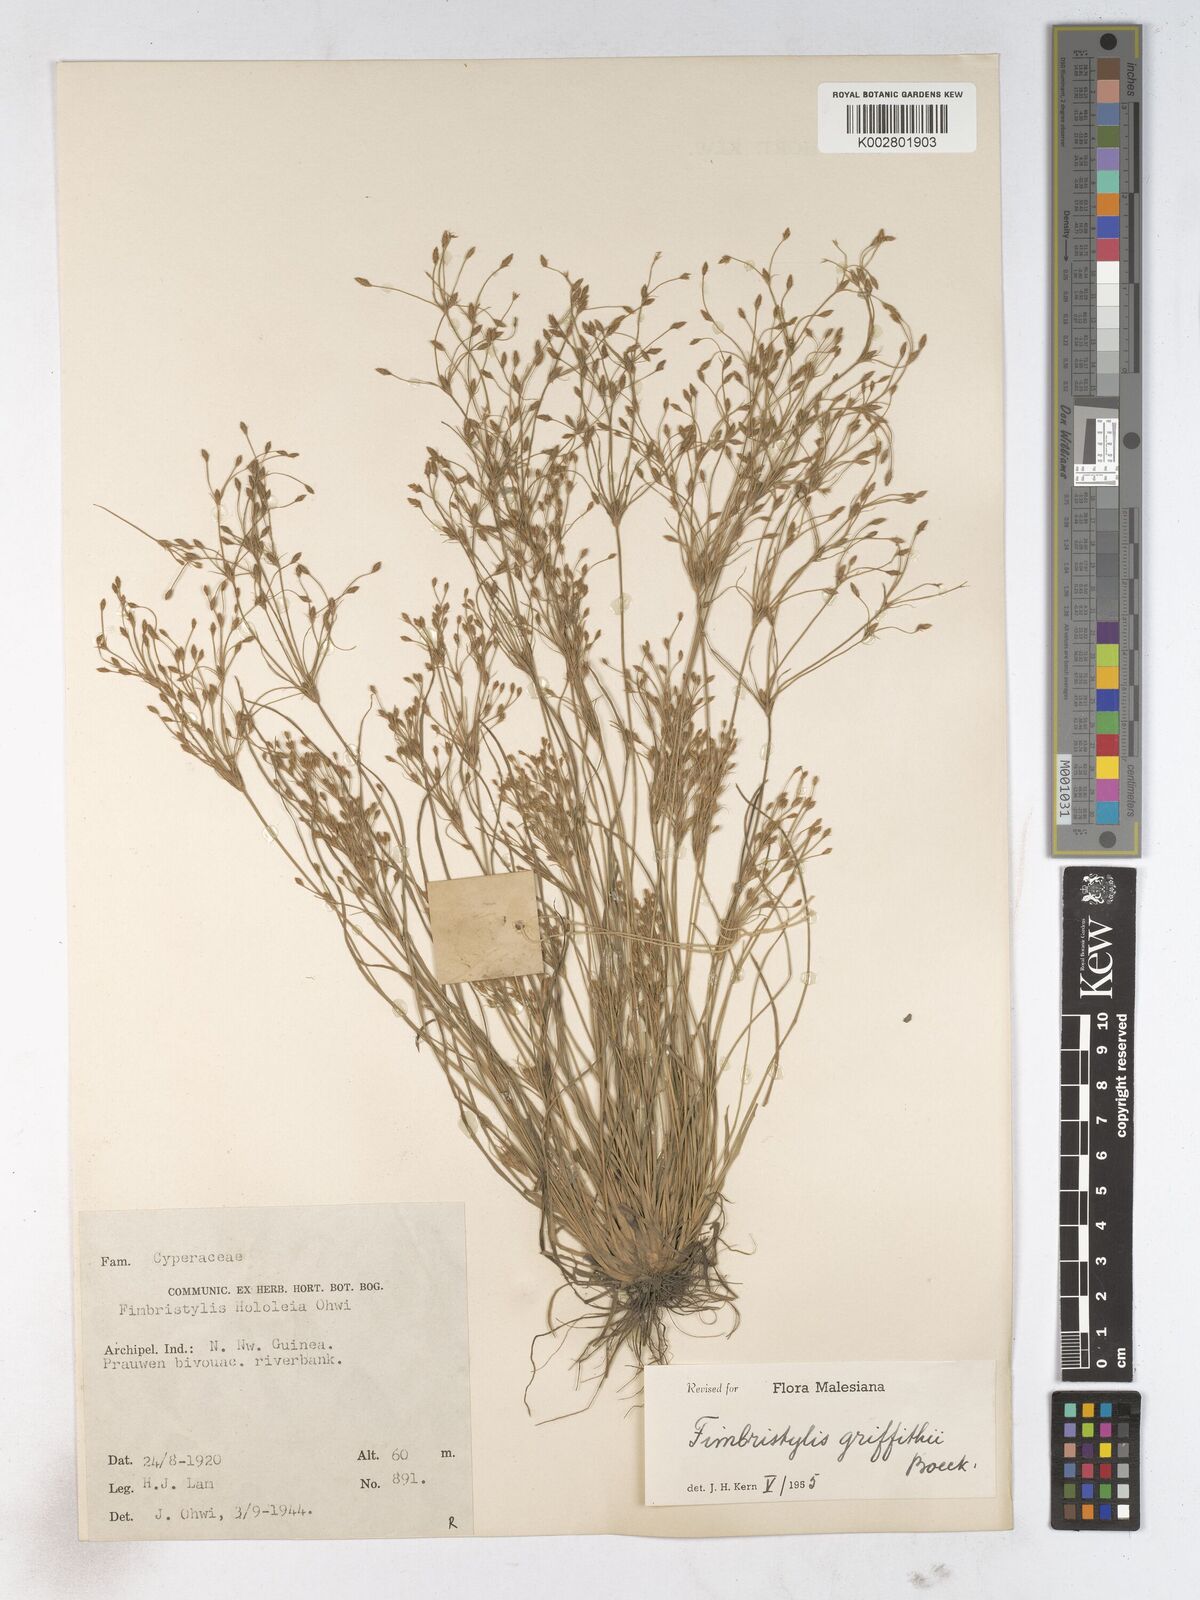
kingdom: Plantae
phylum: Tracheophyta
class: Liliopsida
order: Poales
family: Cyperaceae
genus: Fimbristylis
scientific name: Fimbristylis griffithii
